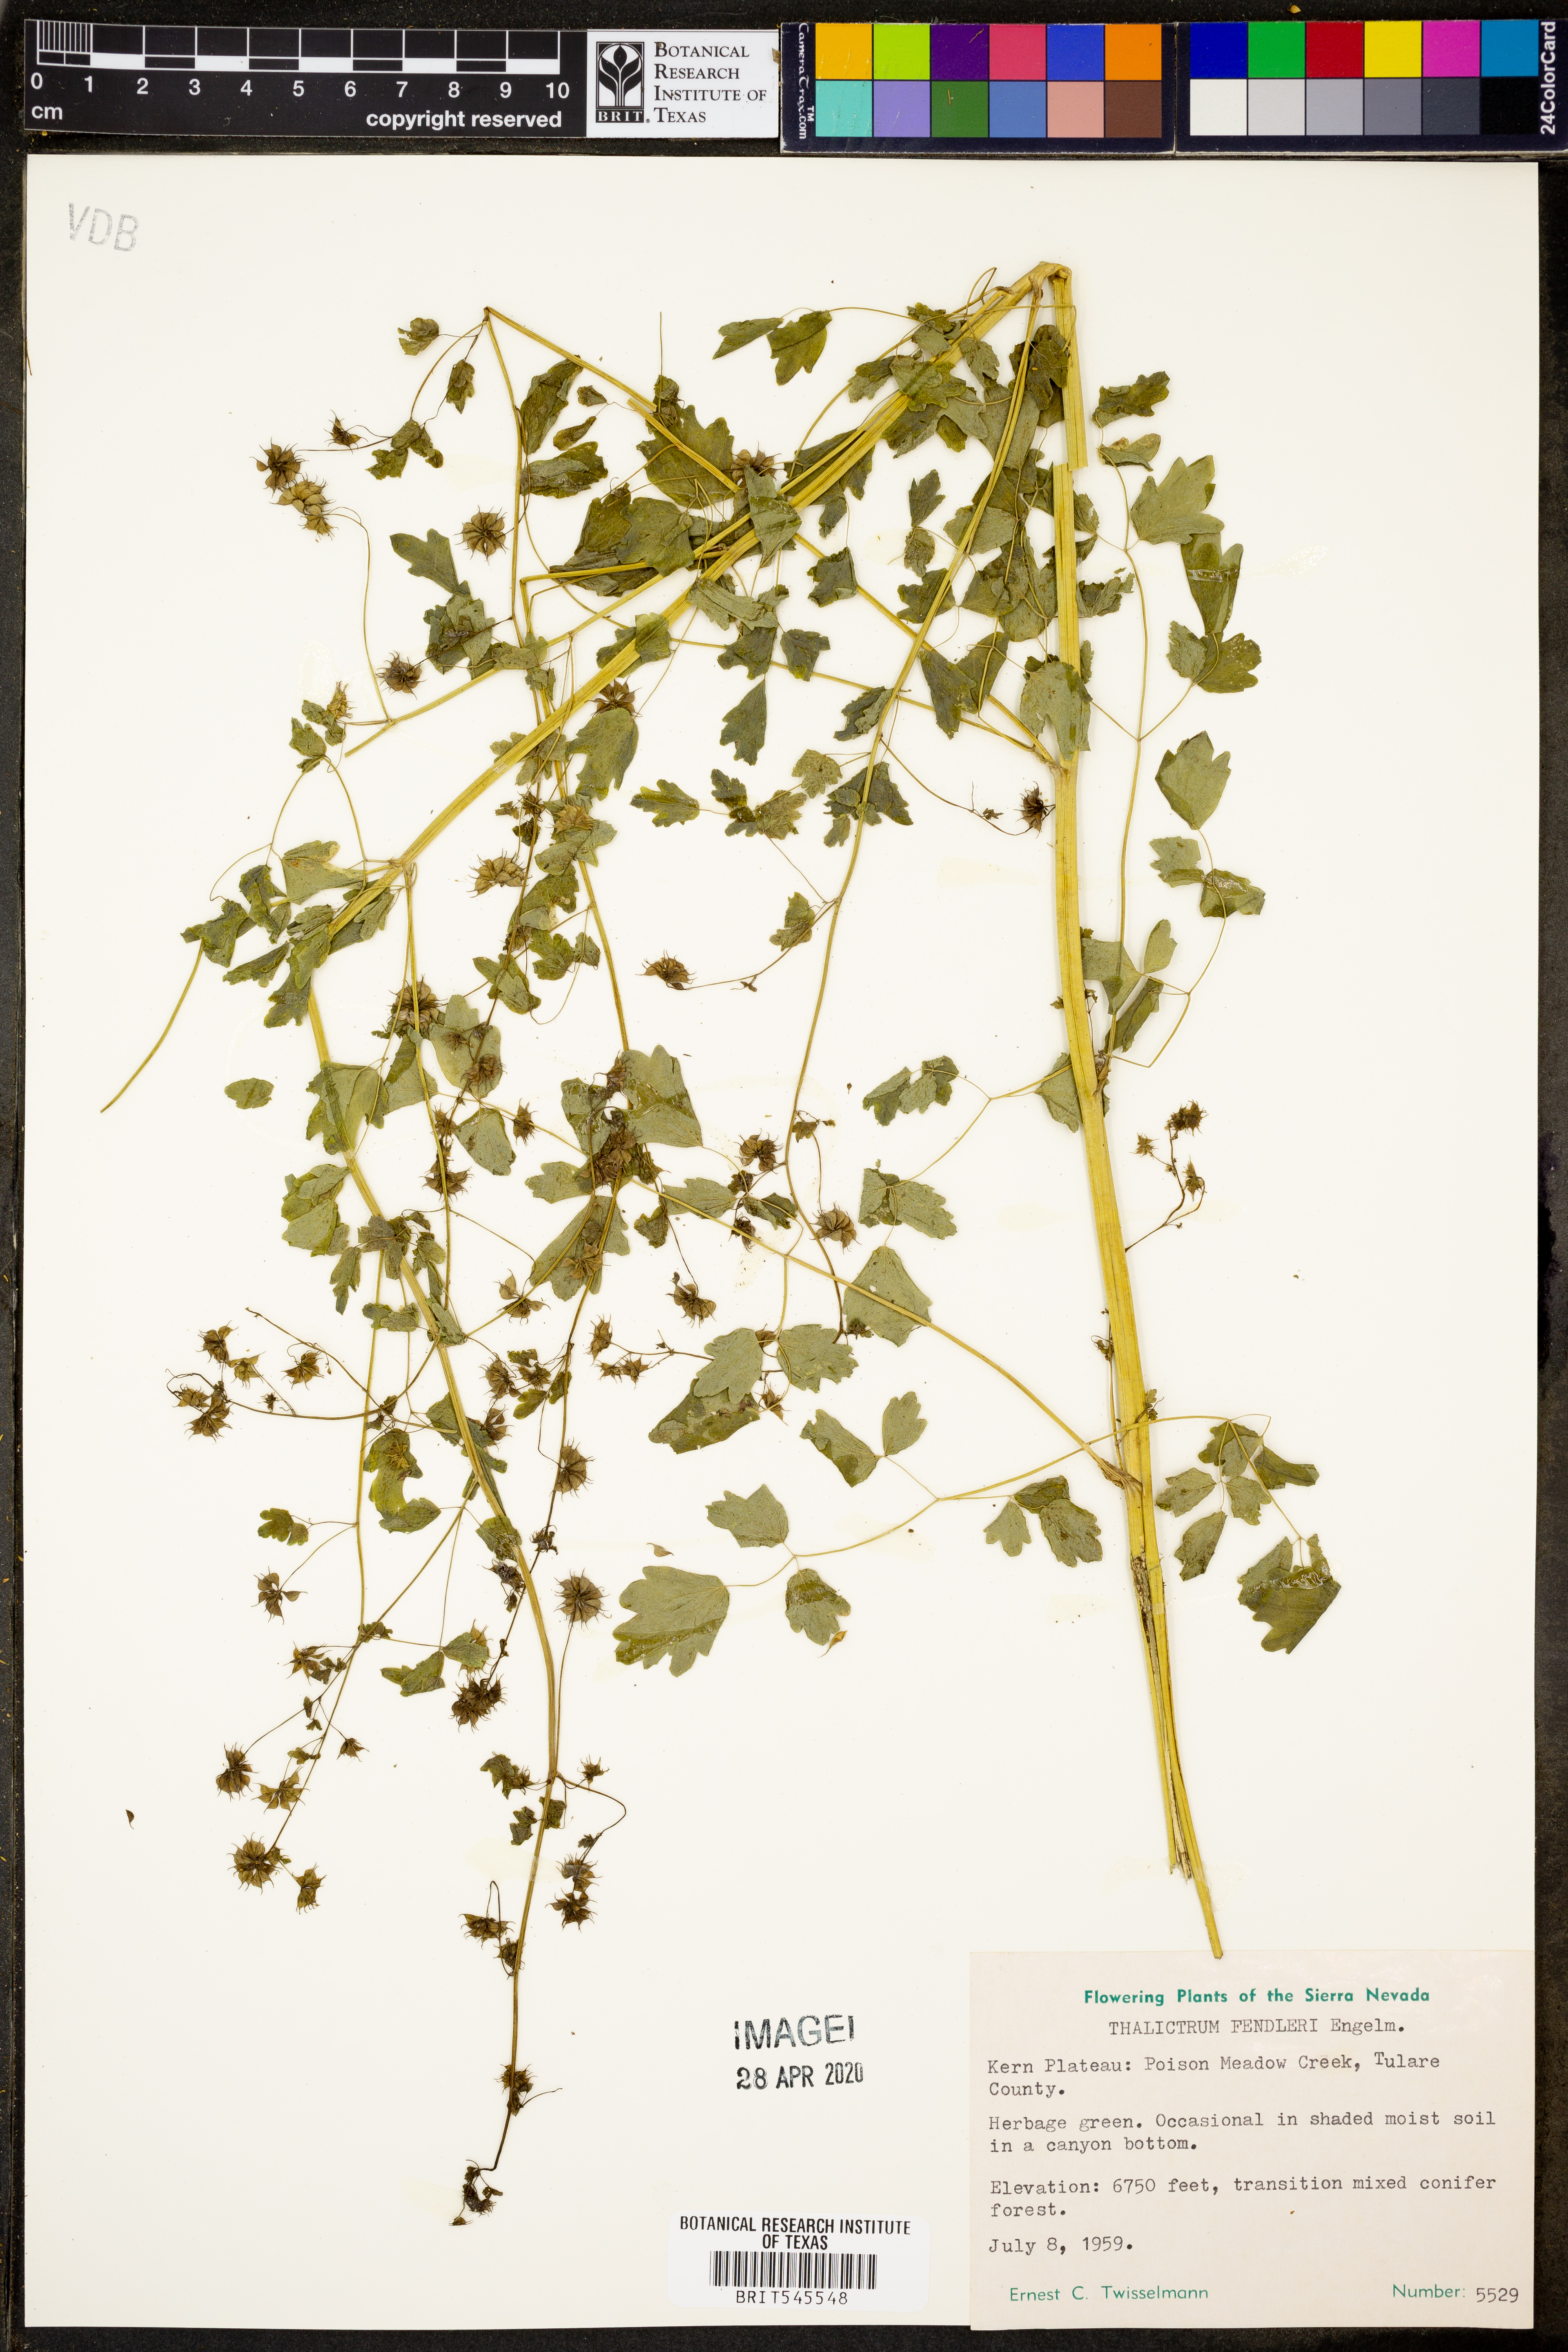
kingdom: Plantae
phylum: Tracheophyta
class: Magnoliopsida
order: Ranunculales
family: Ranunculaceae
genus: Thalictrum
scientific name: Thalictrum fendleri
